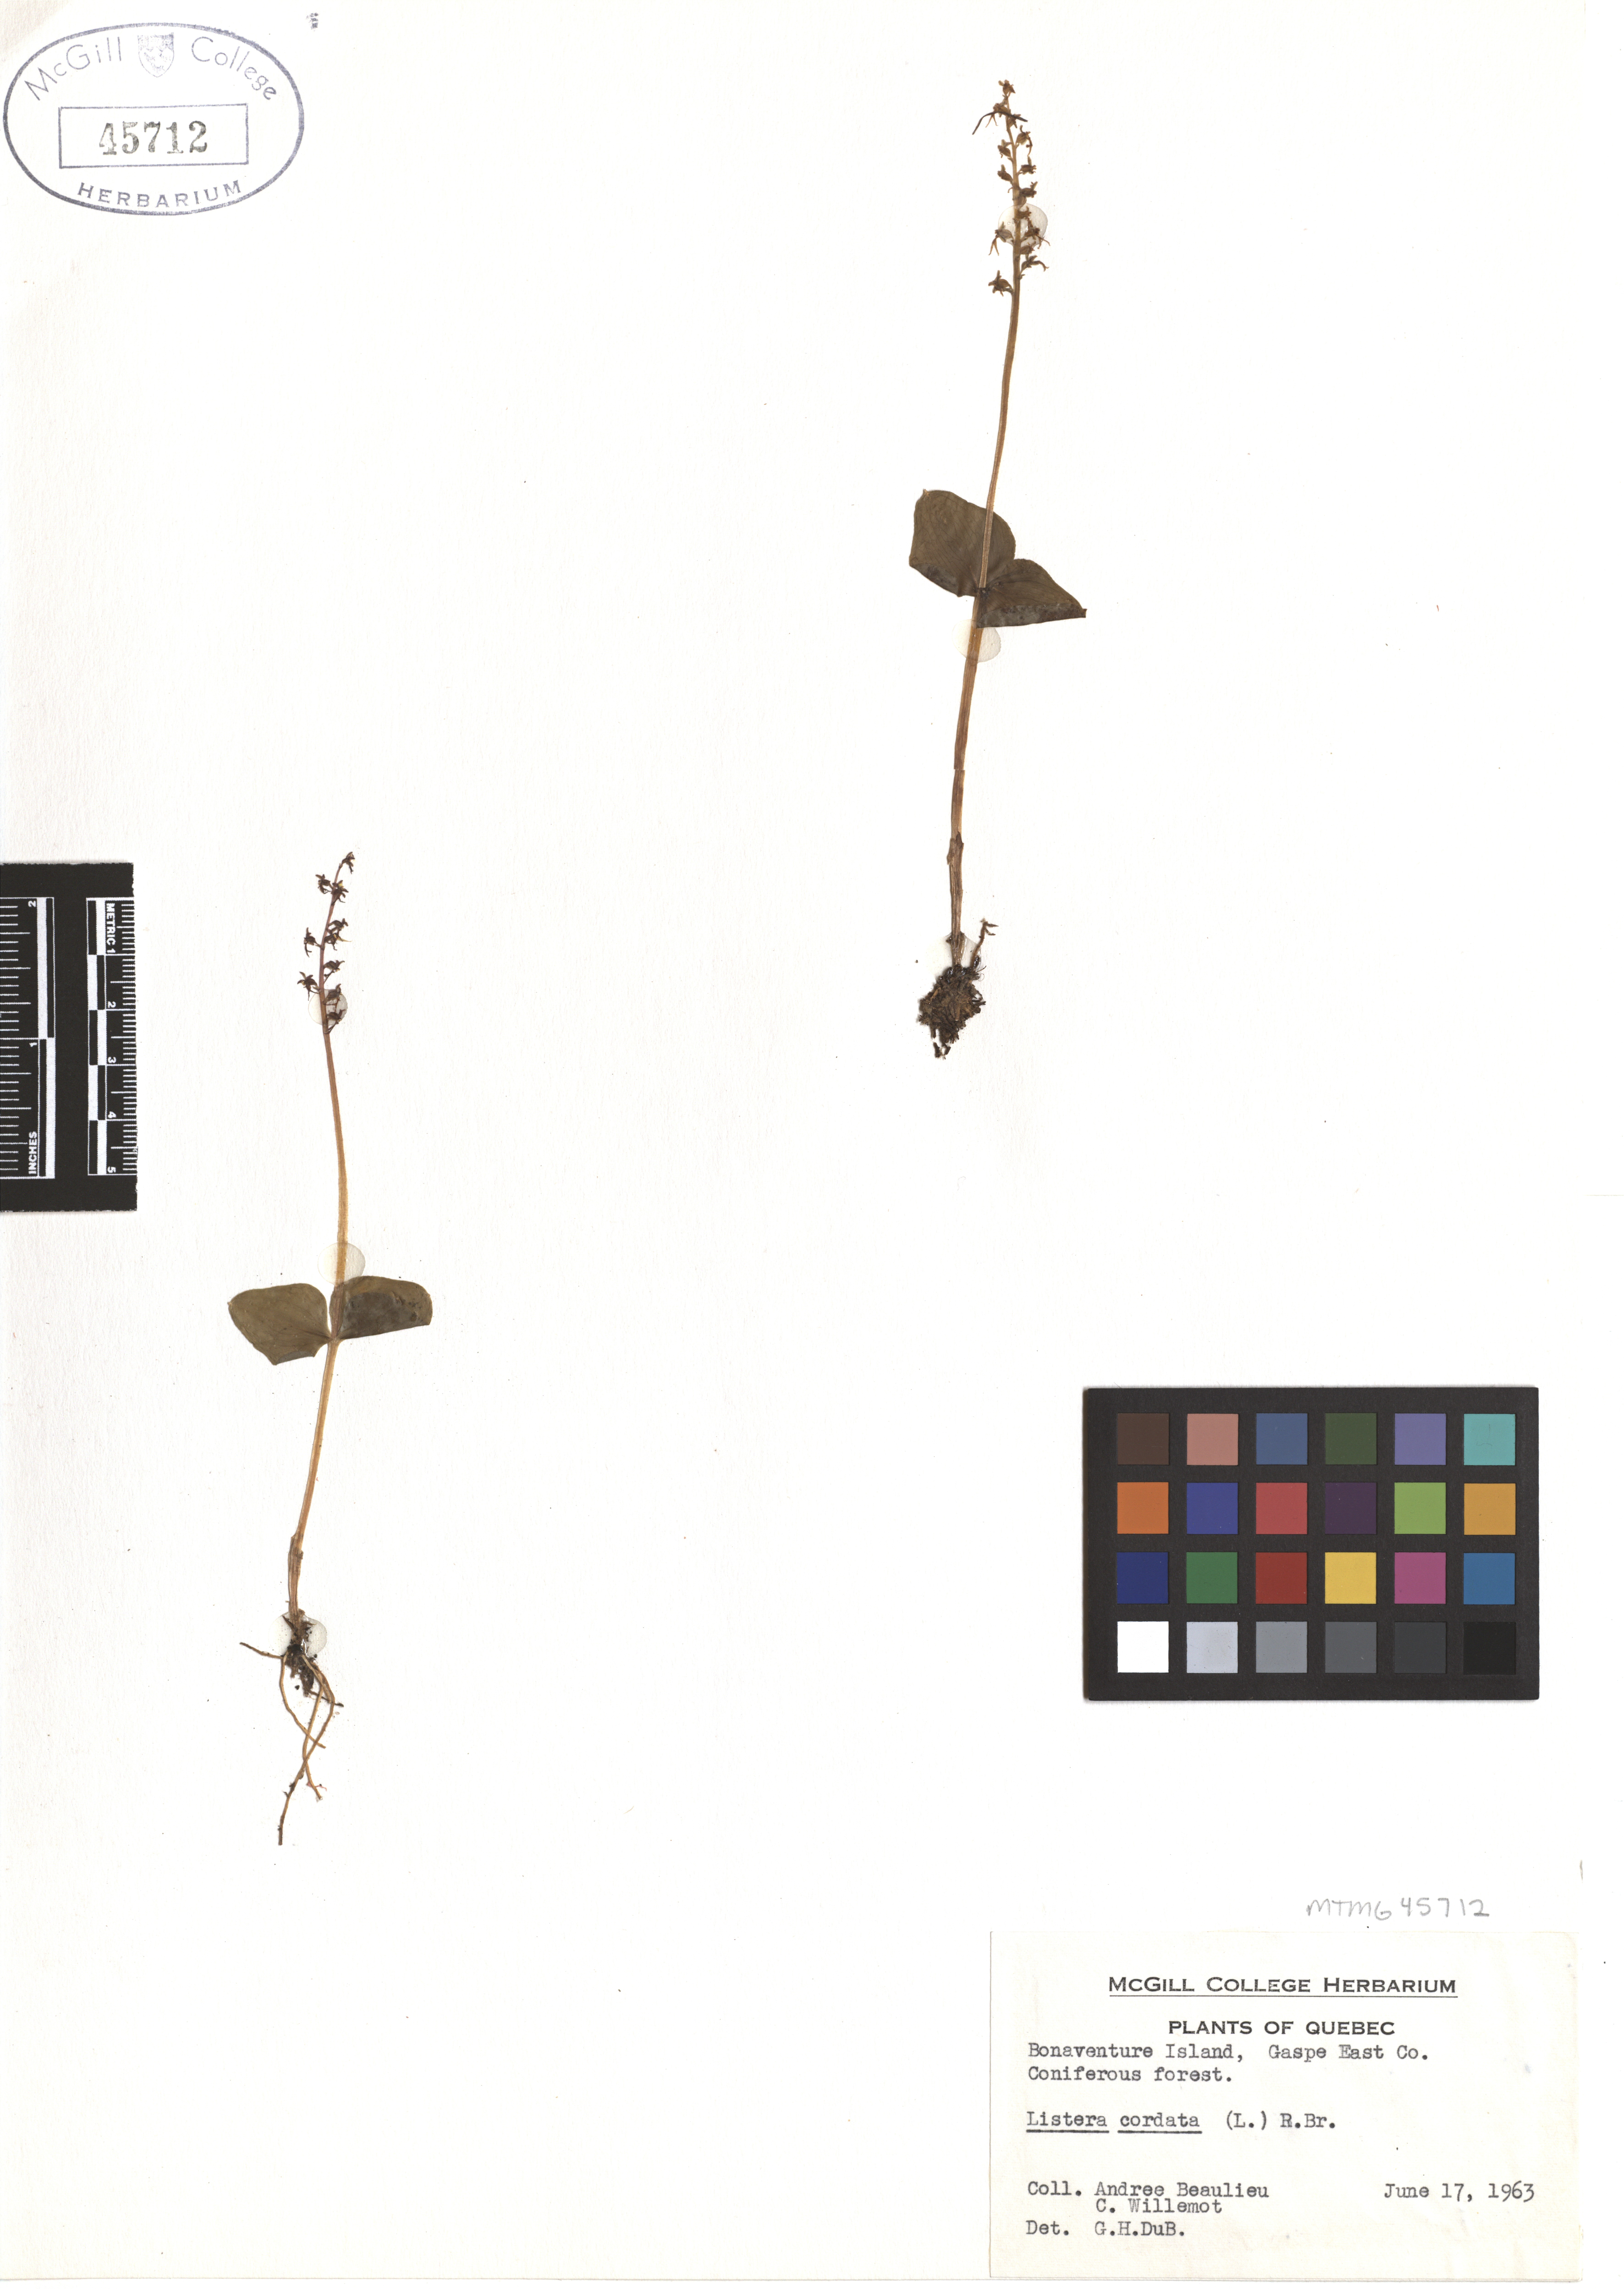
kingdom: Plantae
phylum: Tracheophyta
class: Liliopsida
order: Asparagales
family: Orchidaceae
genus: Neottia
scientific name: Neottia cordata
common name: Lesser twayblade
